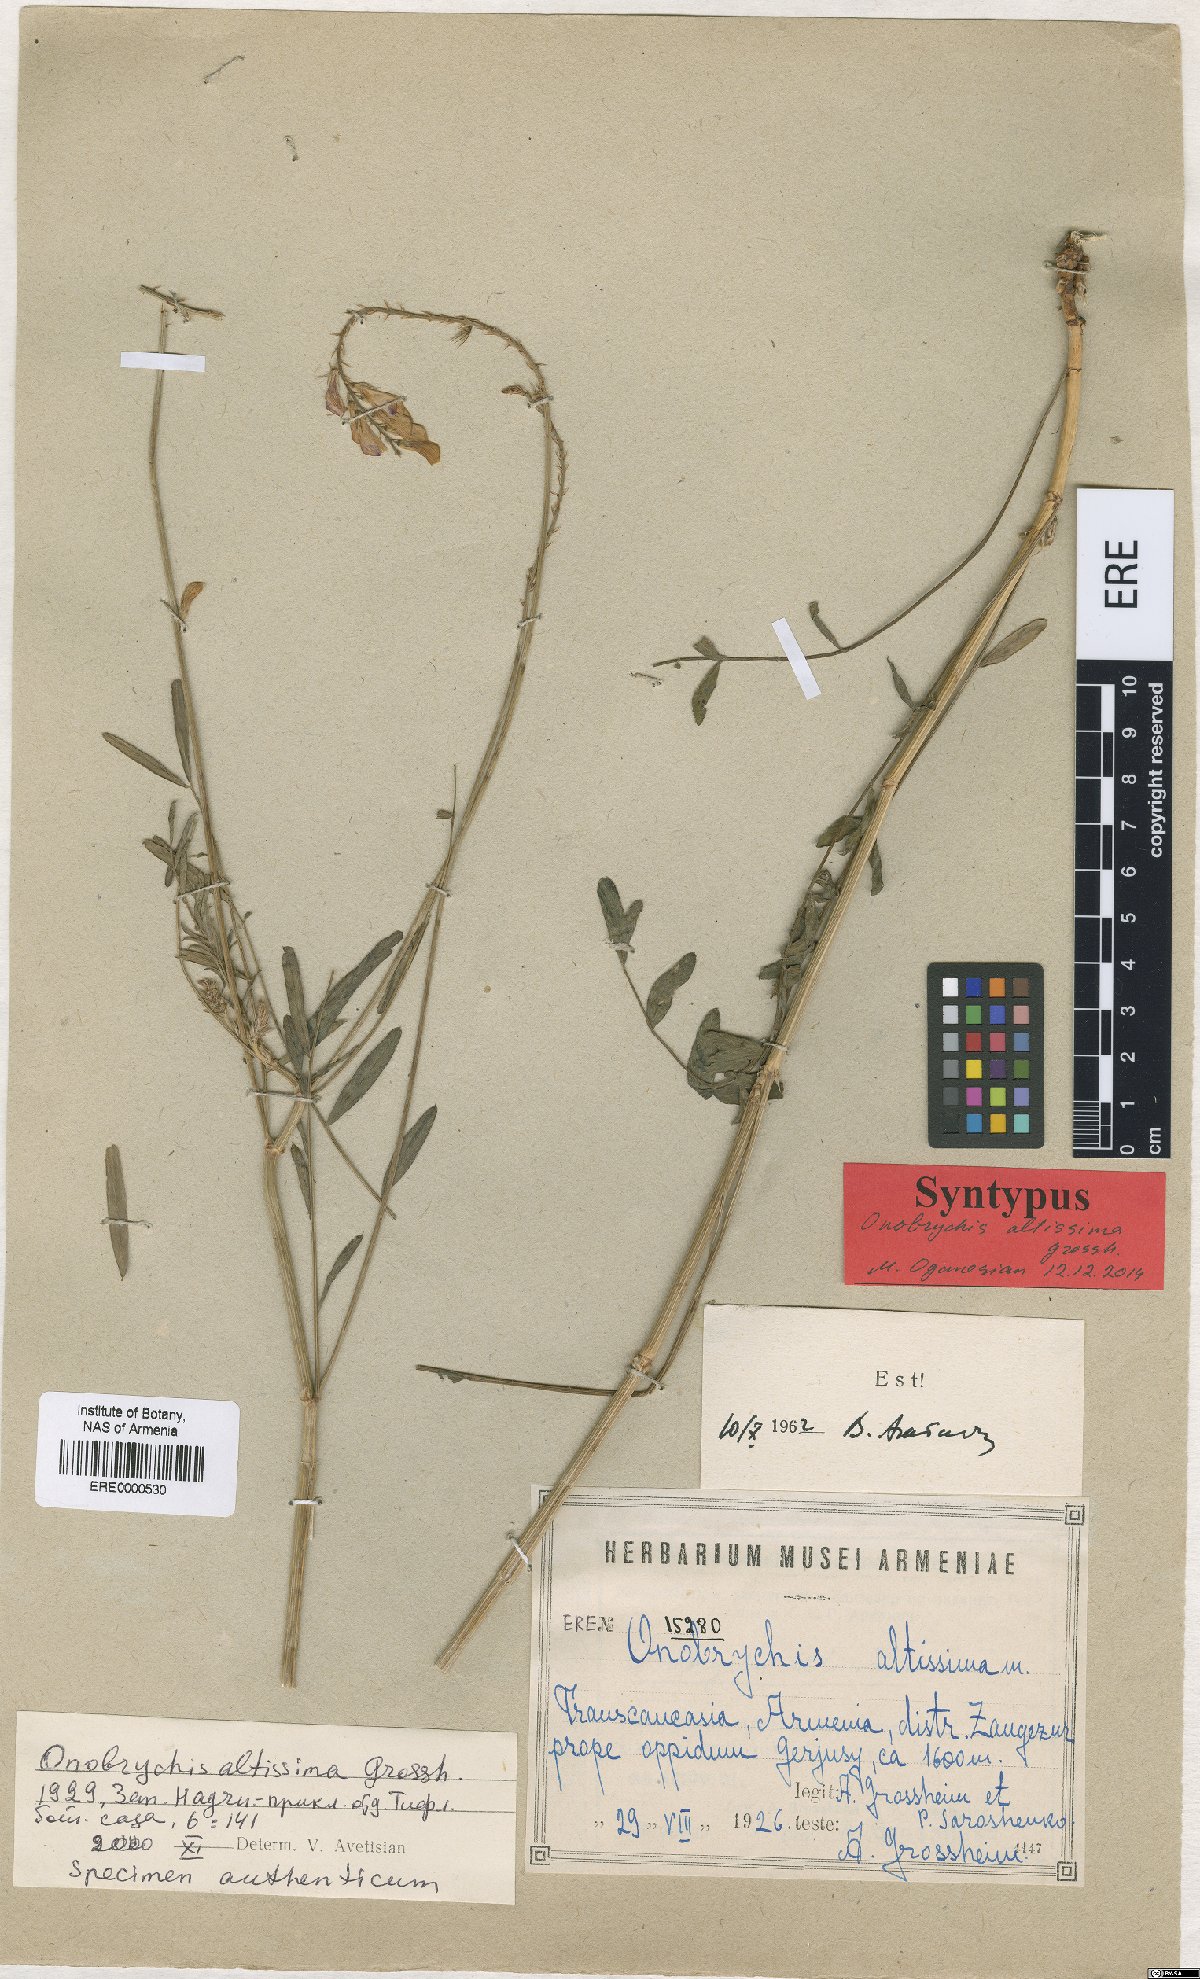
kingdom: Plantae
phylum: Tracheophyta
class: Magnoliopsida
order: Fabales
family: Fabaceae
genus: Onobrychis
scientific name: Onobrychis altissima
